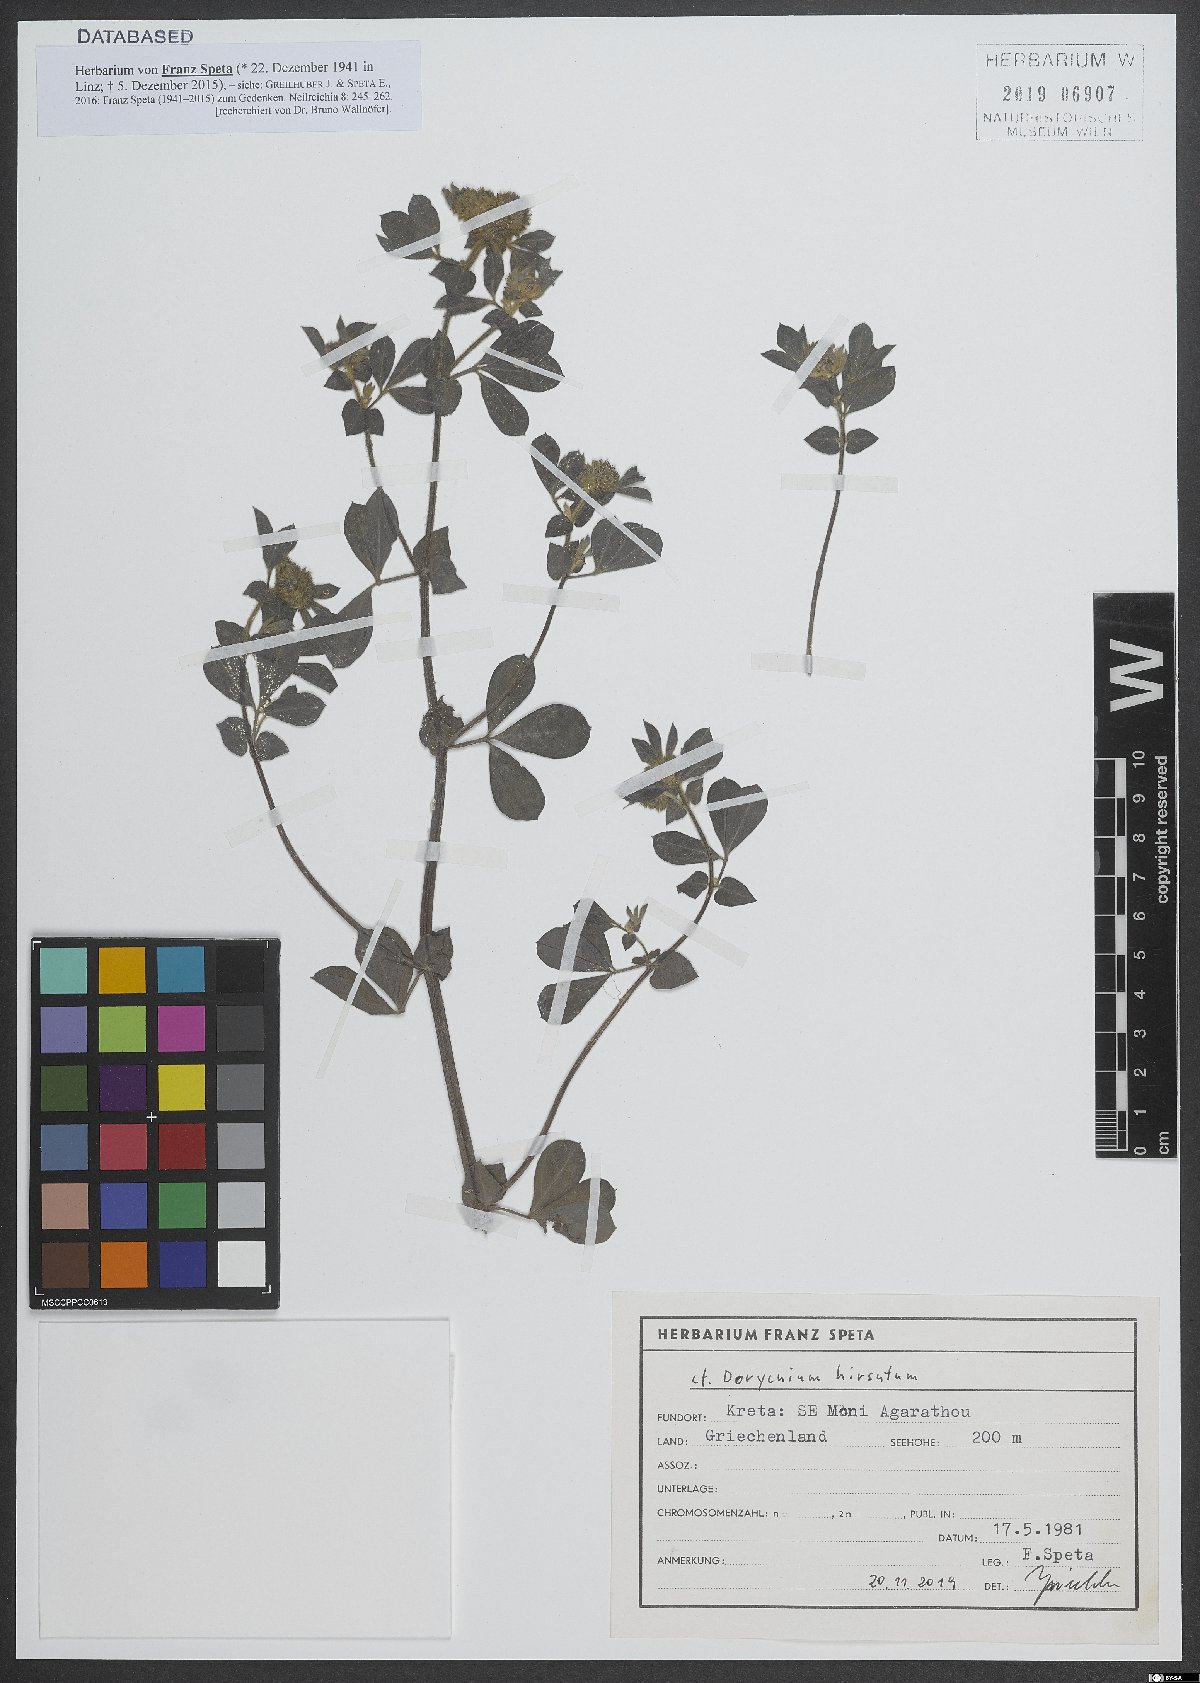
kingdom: Plantae
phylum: Tracheophyta
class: Magnoliopsida
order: Fabales
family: Fabaceae
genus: Lotus
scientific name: Lotus hirsutus
